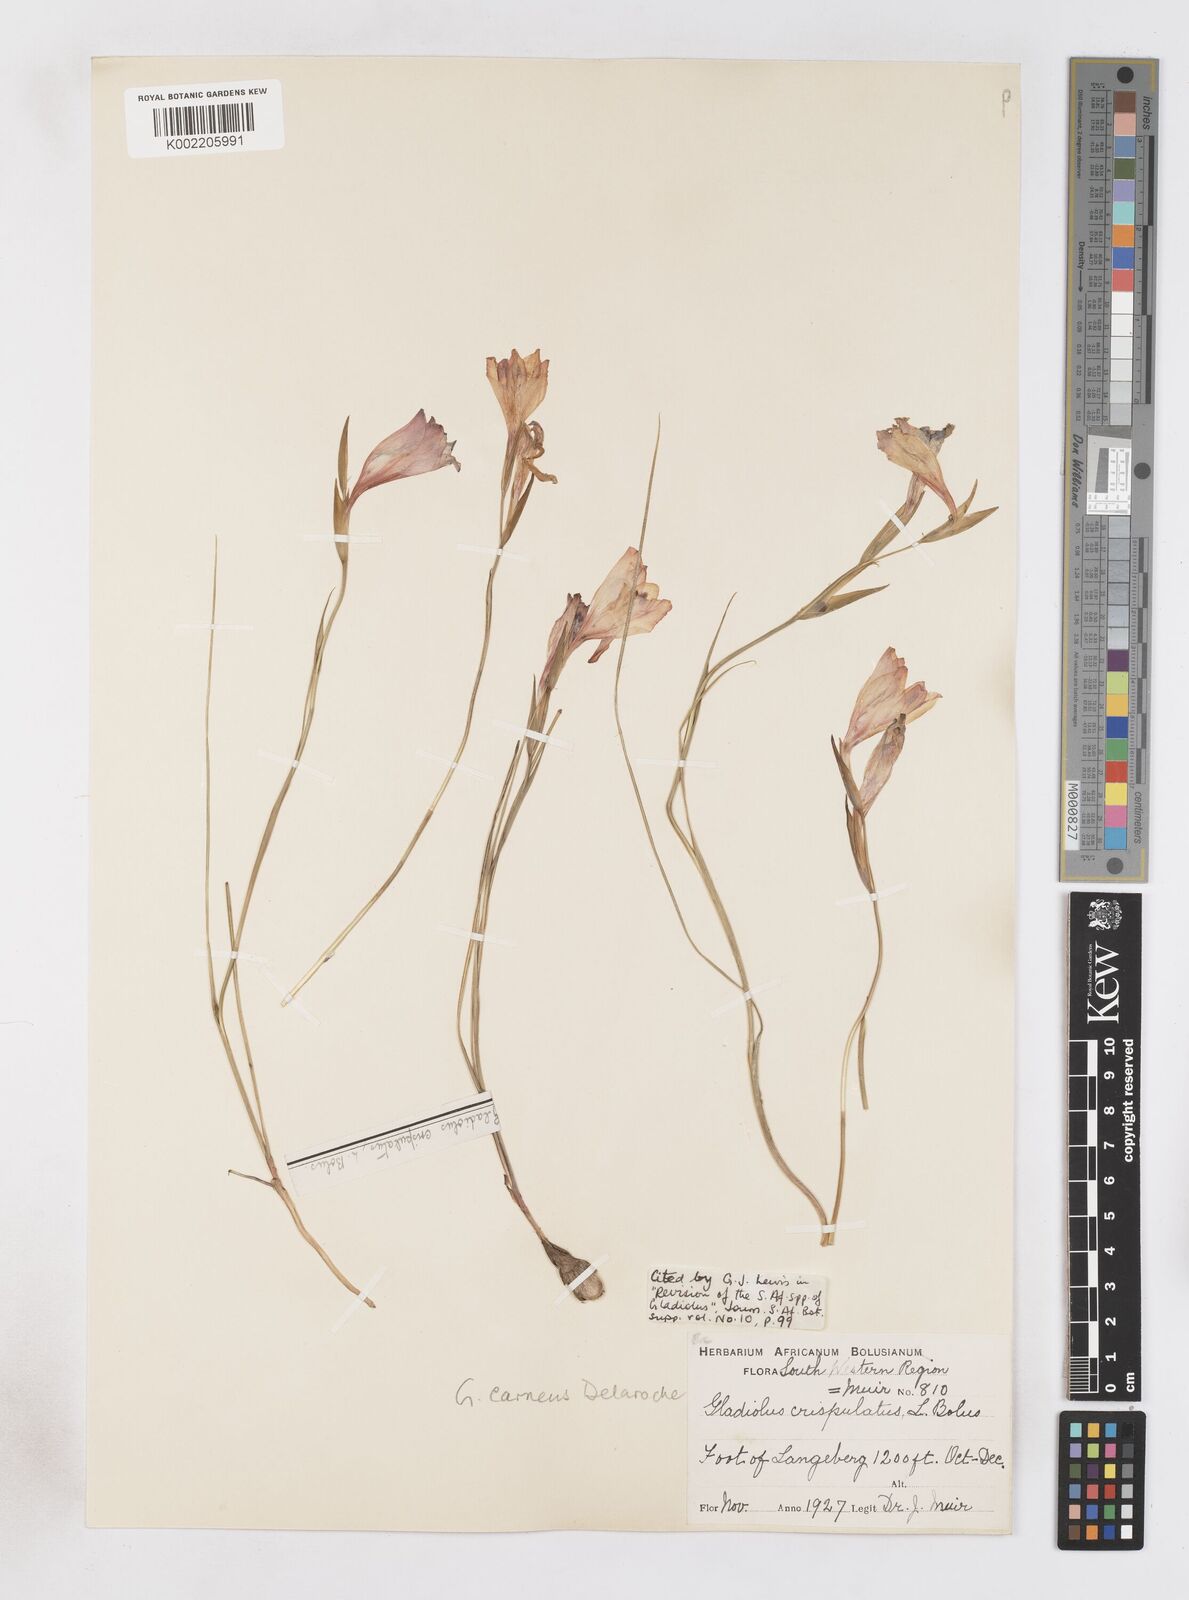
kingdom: Plantae
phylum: Tracheophyta
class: Liliopsida
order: Asparagales
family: Iridaceae
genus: Gladiolus
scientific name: Gladiolus oreocharis
